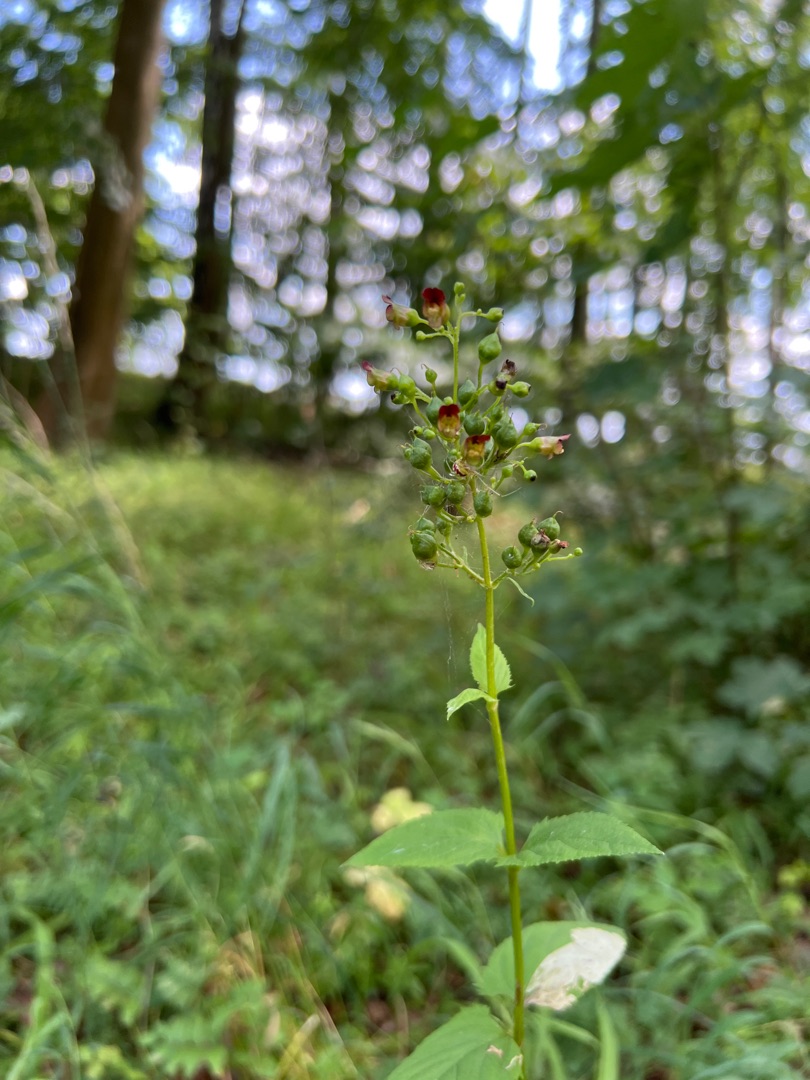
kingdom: Plantae
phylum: Tracheophyta
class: Magnoliopsida
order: Lamiales
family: Scrophulariaceae
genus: Scrophularia
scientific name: Scrophularia nodosa
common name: Knoldet brunrod
